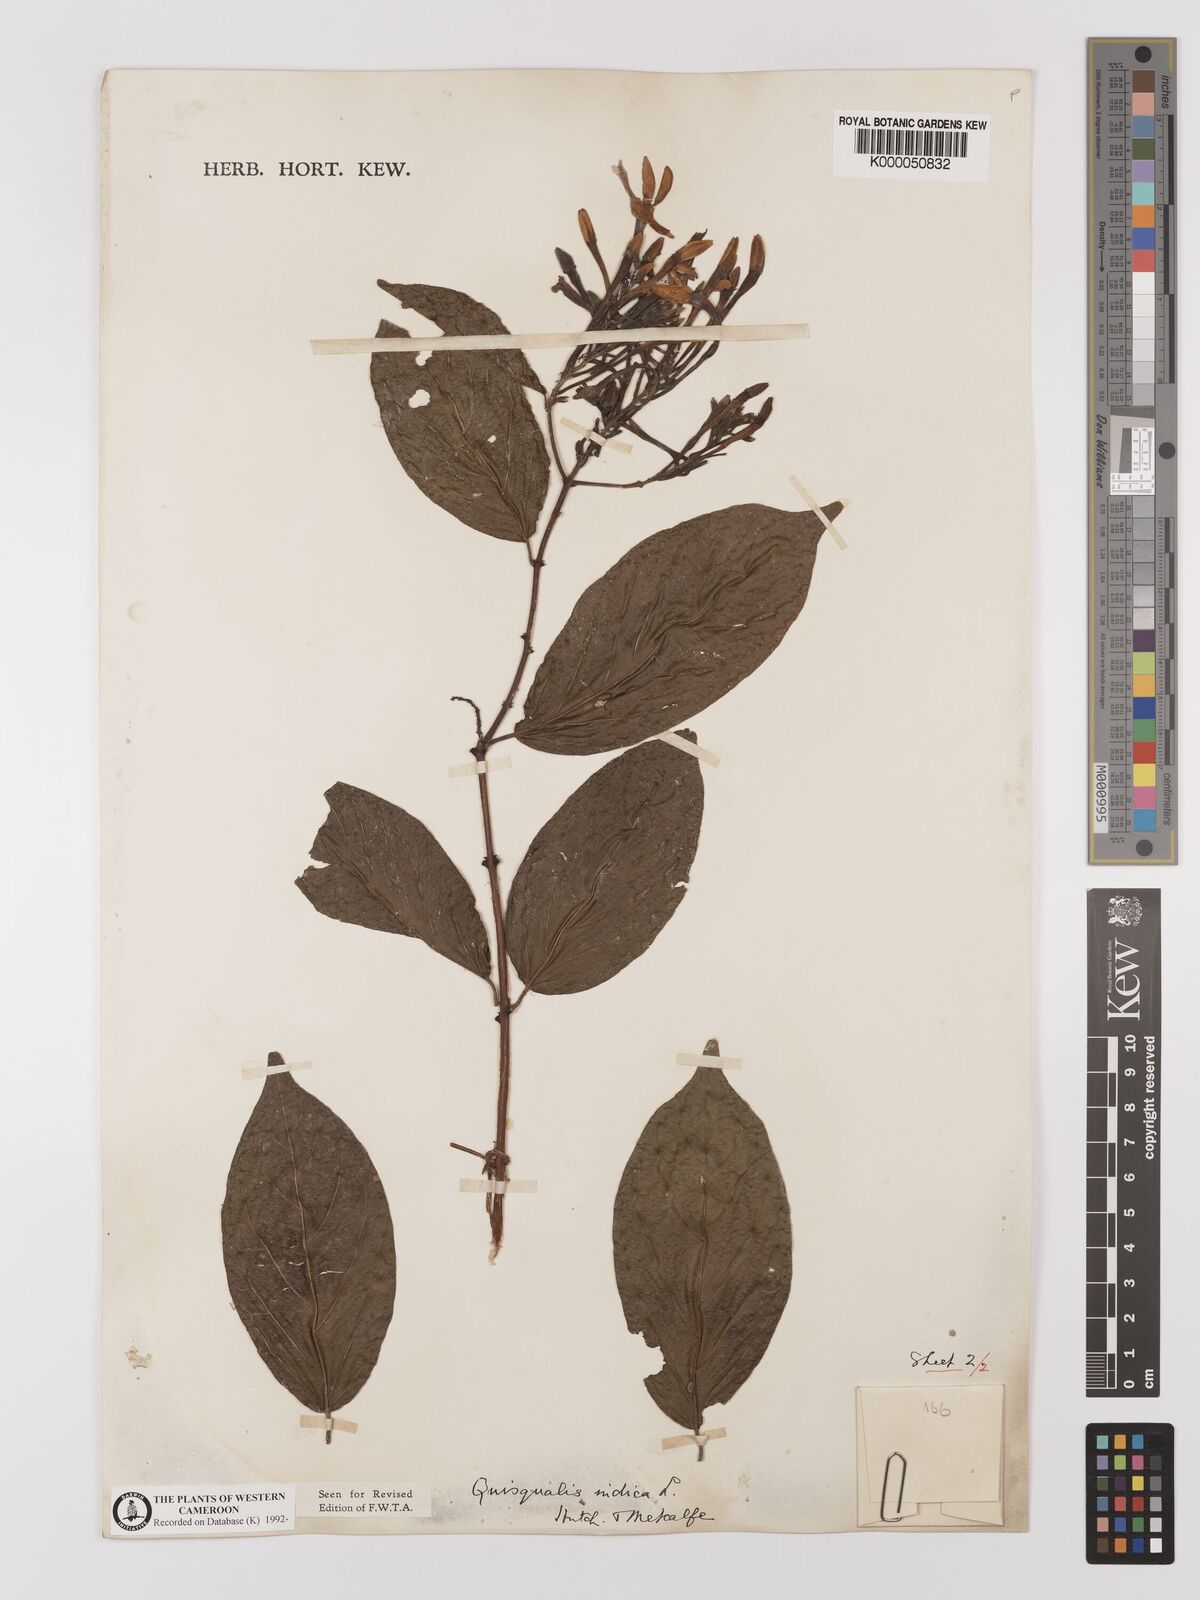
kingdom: Plantae
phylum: Tracheophyta
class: Magnoliopsida
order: Myrtales
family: Combretaceae
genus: Combretum
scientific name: Combretum indicum
